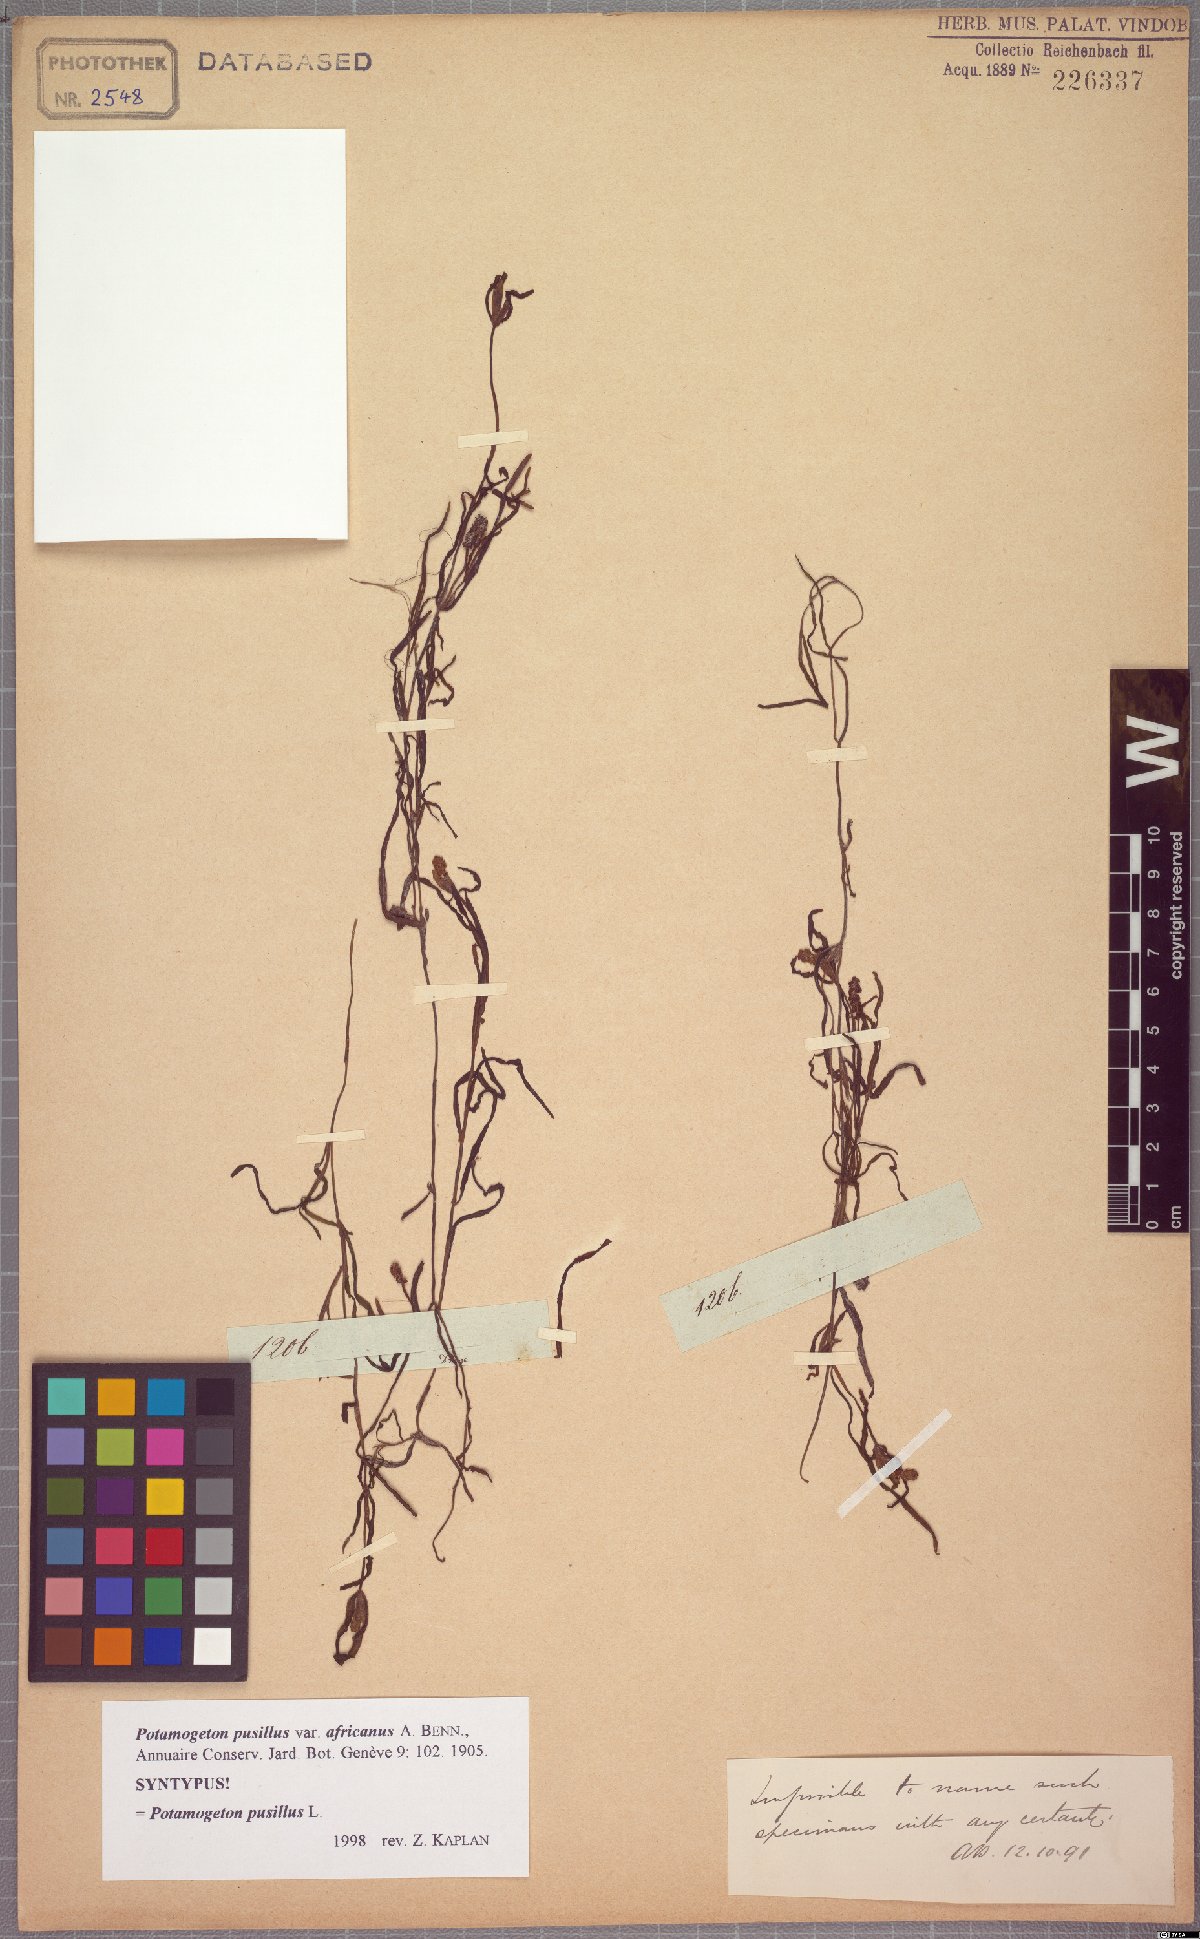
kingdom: Plantae
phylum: Tracheophyta
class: Liliopsida
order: Alismatales
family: Potamogetonaceae
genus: Potamogeton
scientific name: Potamogeton pusillus
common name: Lesser pondweed
